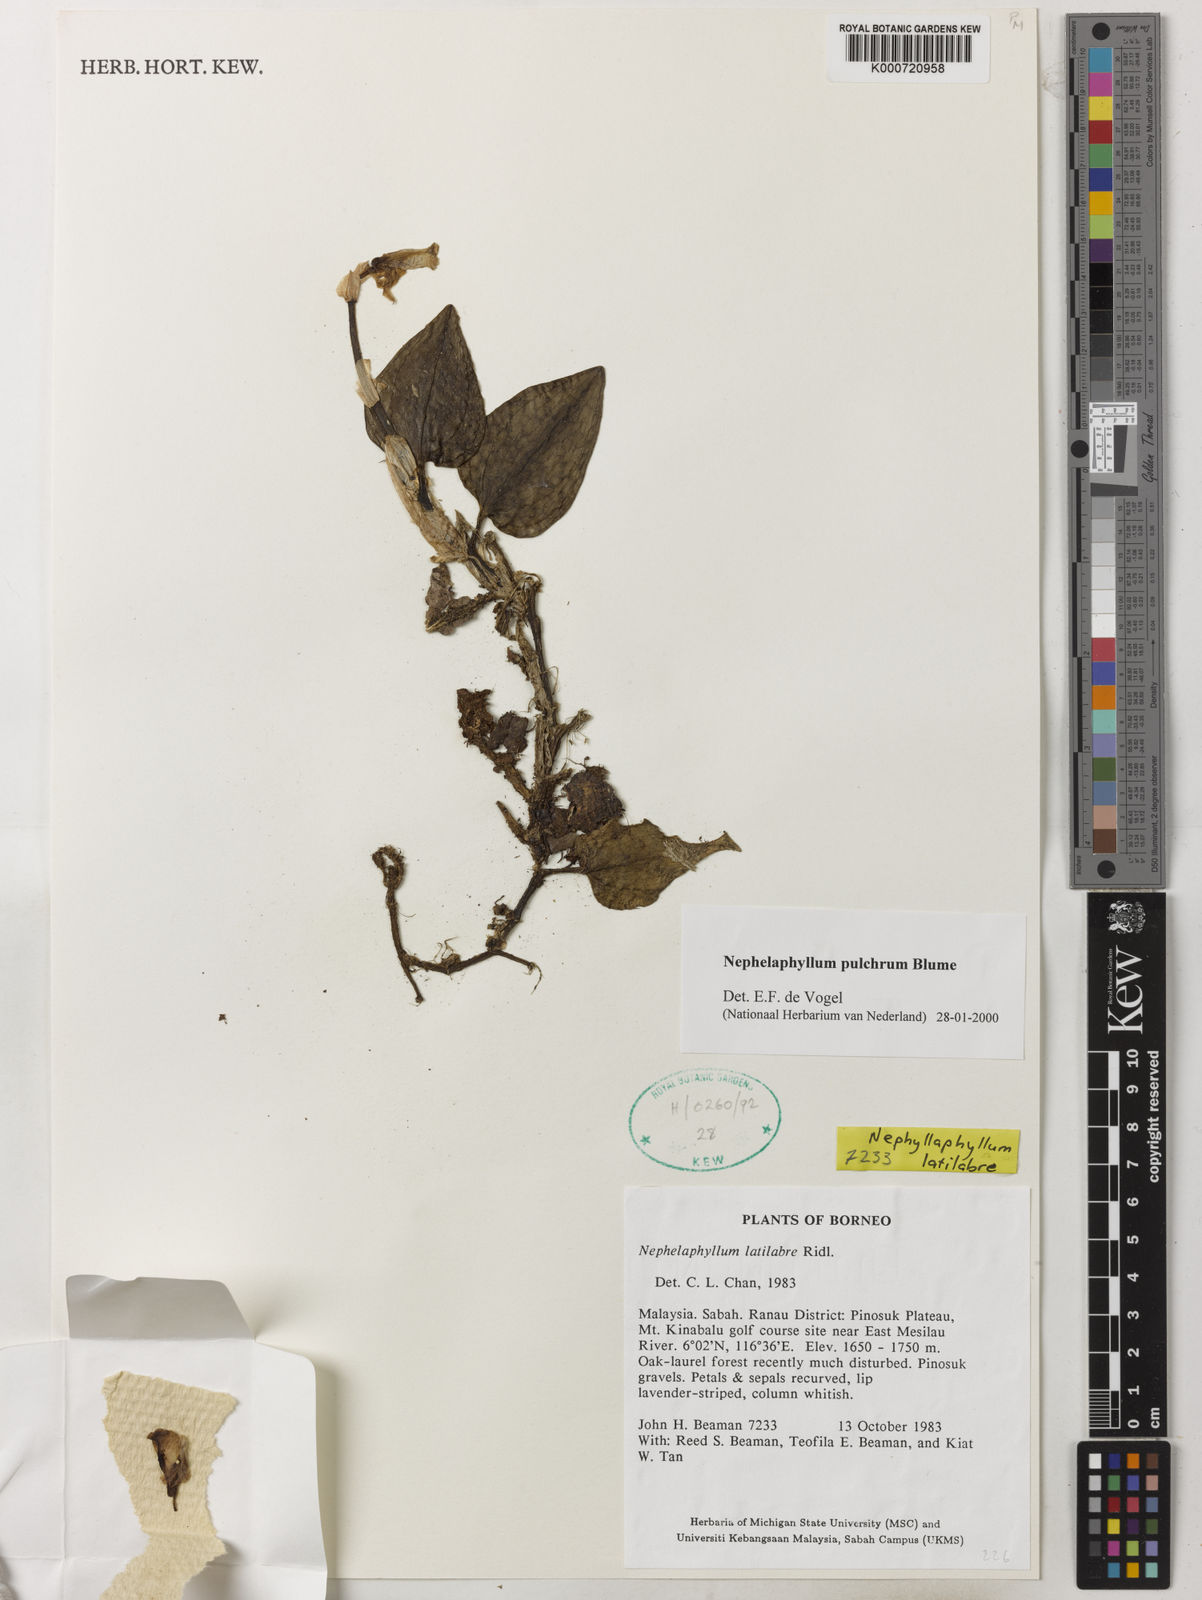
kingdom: Plantae
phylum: Tracheophyta
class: Liliopsida
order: Asparagales
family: Orchidaceae
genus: Nephelaphyllum
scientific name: Nephelaphyllum pulchrum
